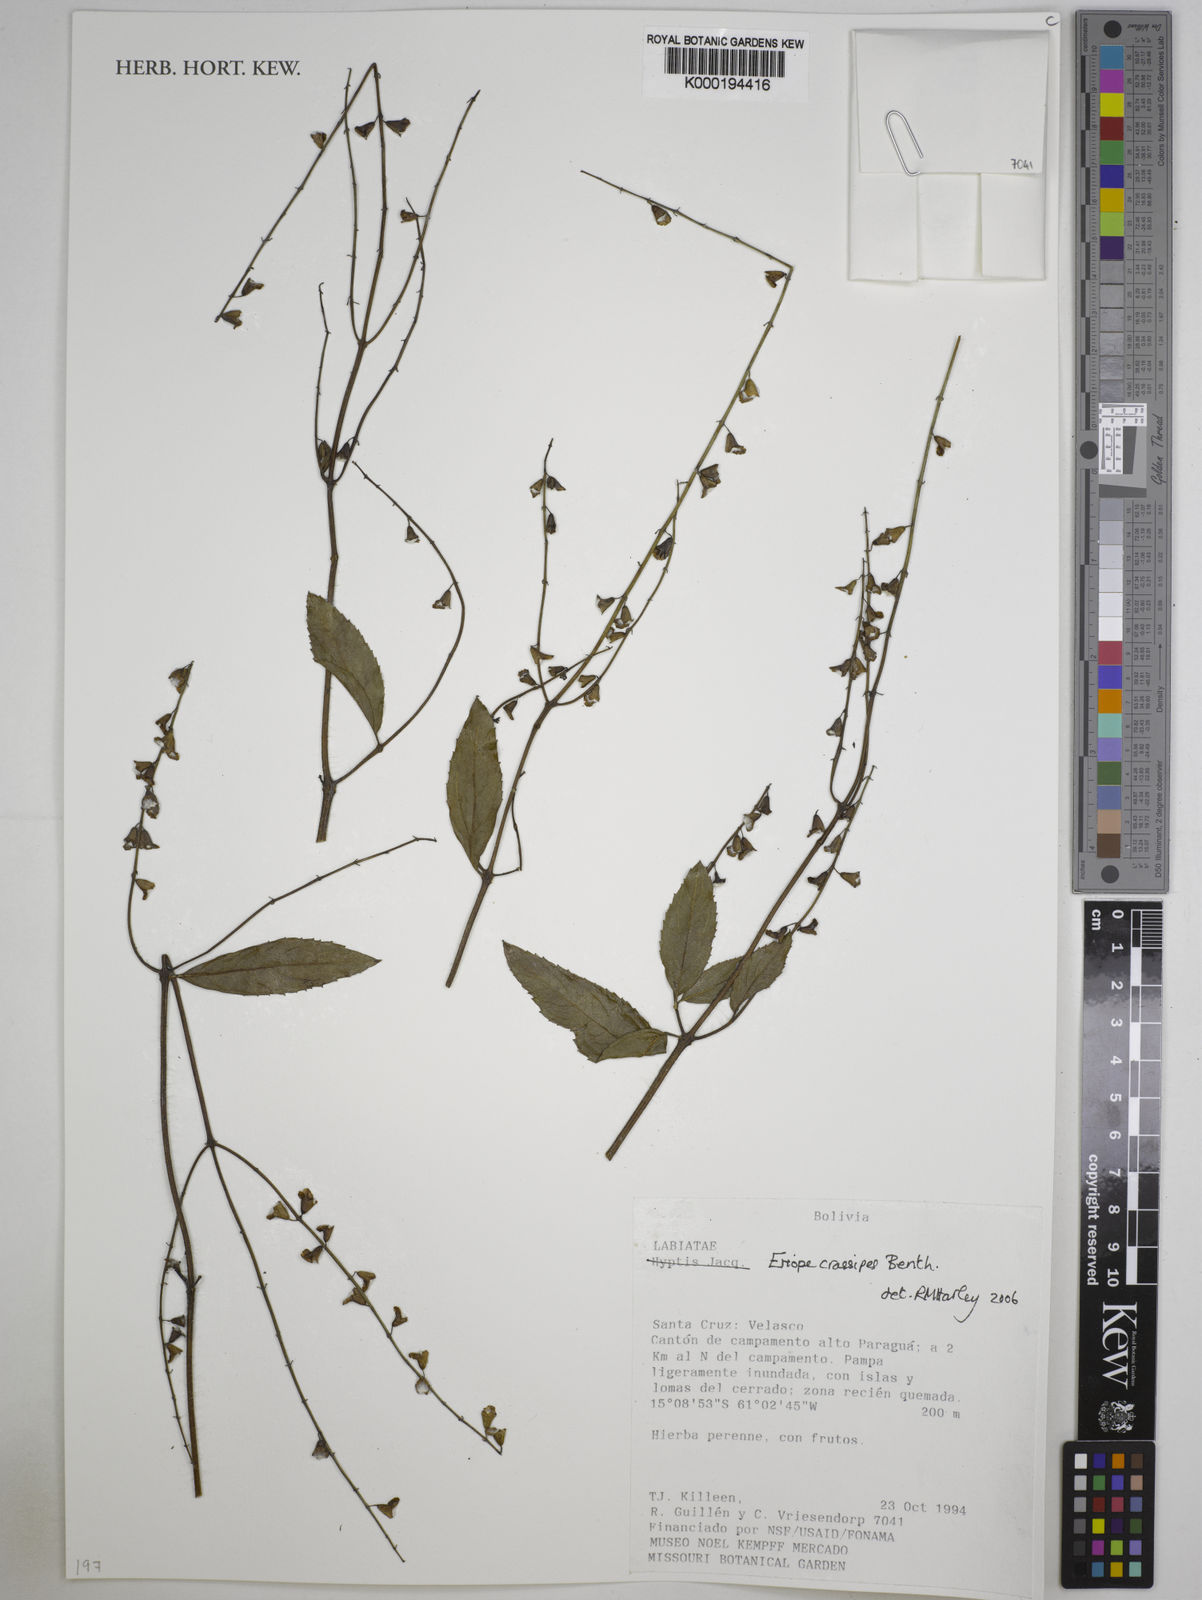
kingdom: Plantae
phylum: Tracheophyta
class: Magnoliopsida
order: Lamiales
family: Lamiaceae
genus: Eriope
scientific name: Eriope crassipes
